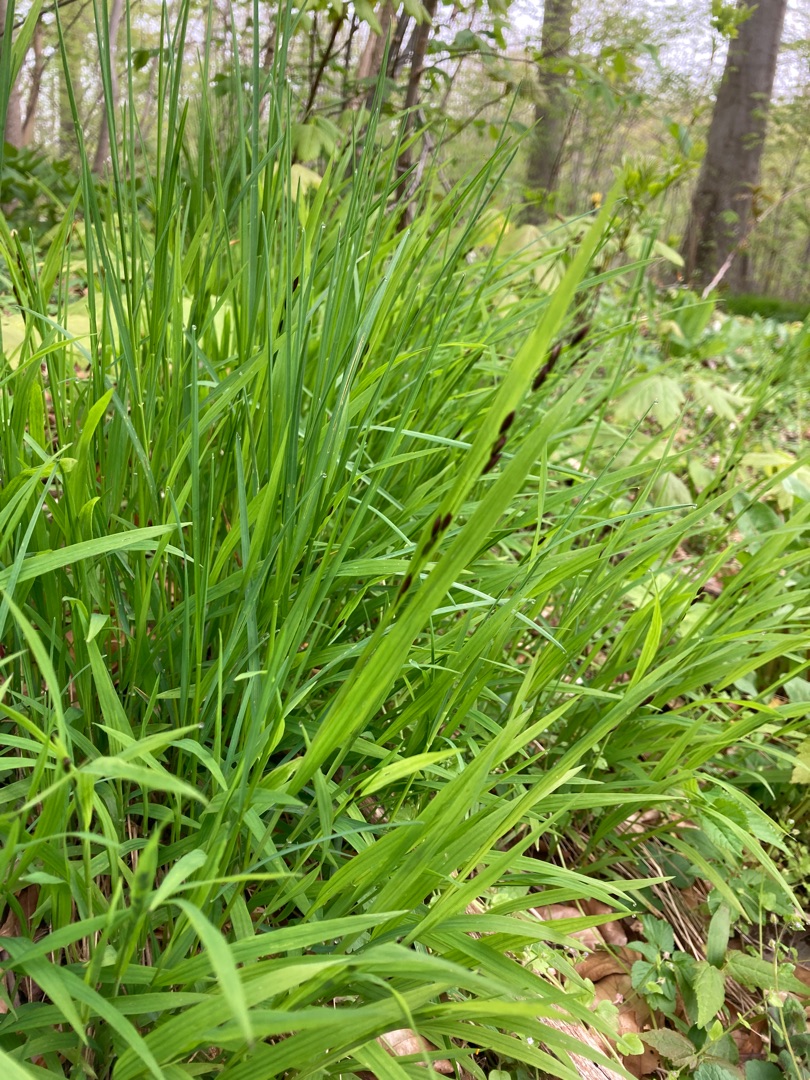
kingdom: Plantae
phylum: Tracheophyta
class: Liliopsida
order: Poales
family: Poaceae
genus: Melica
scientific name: Melica uniflora
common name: Enblomstret flitteraks
